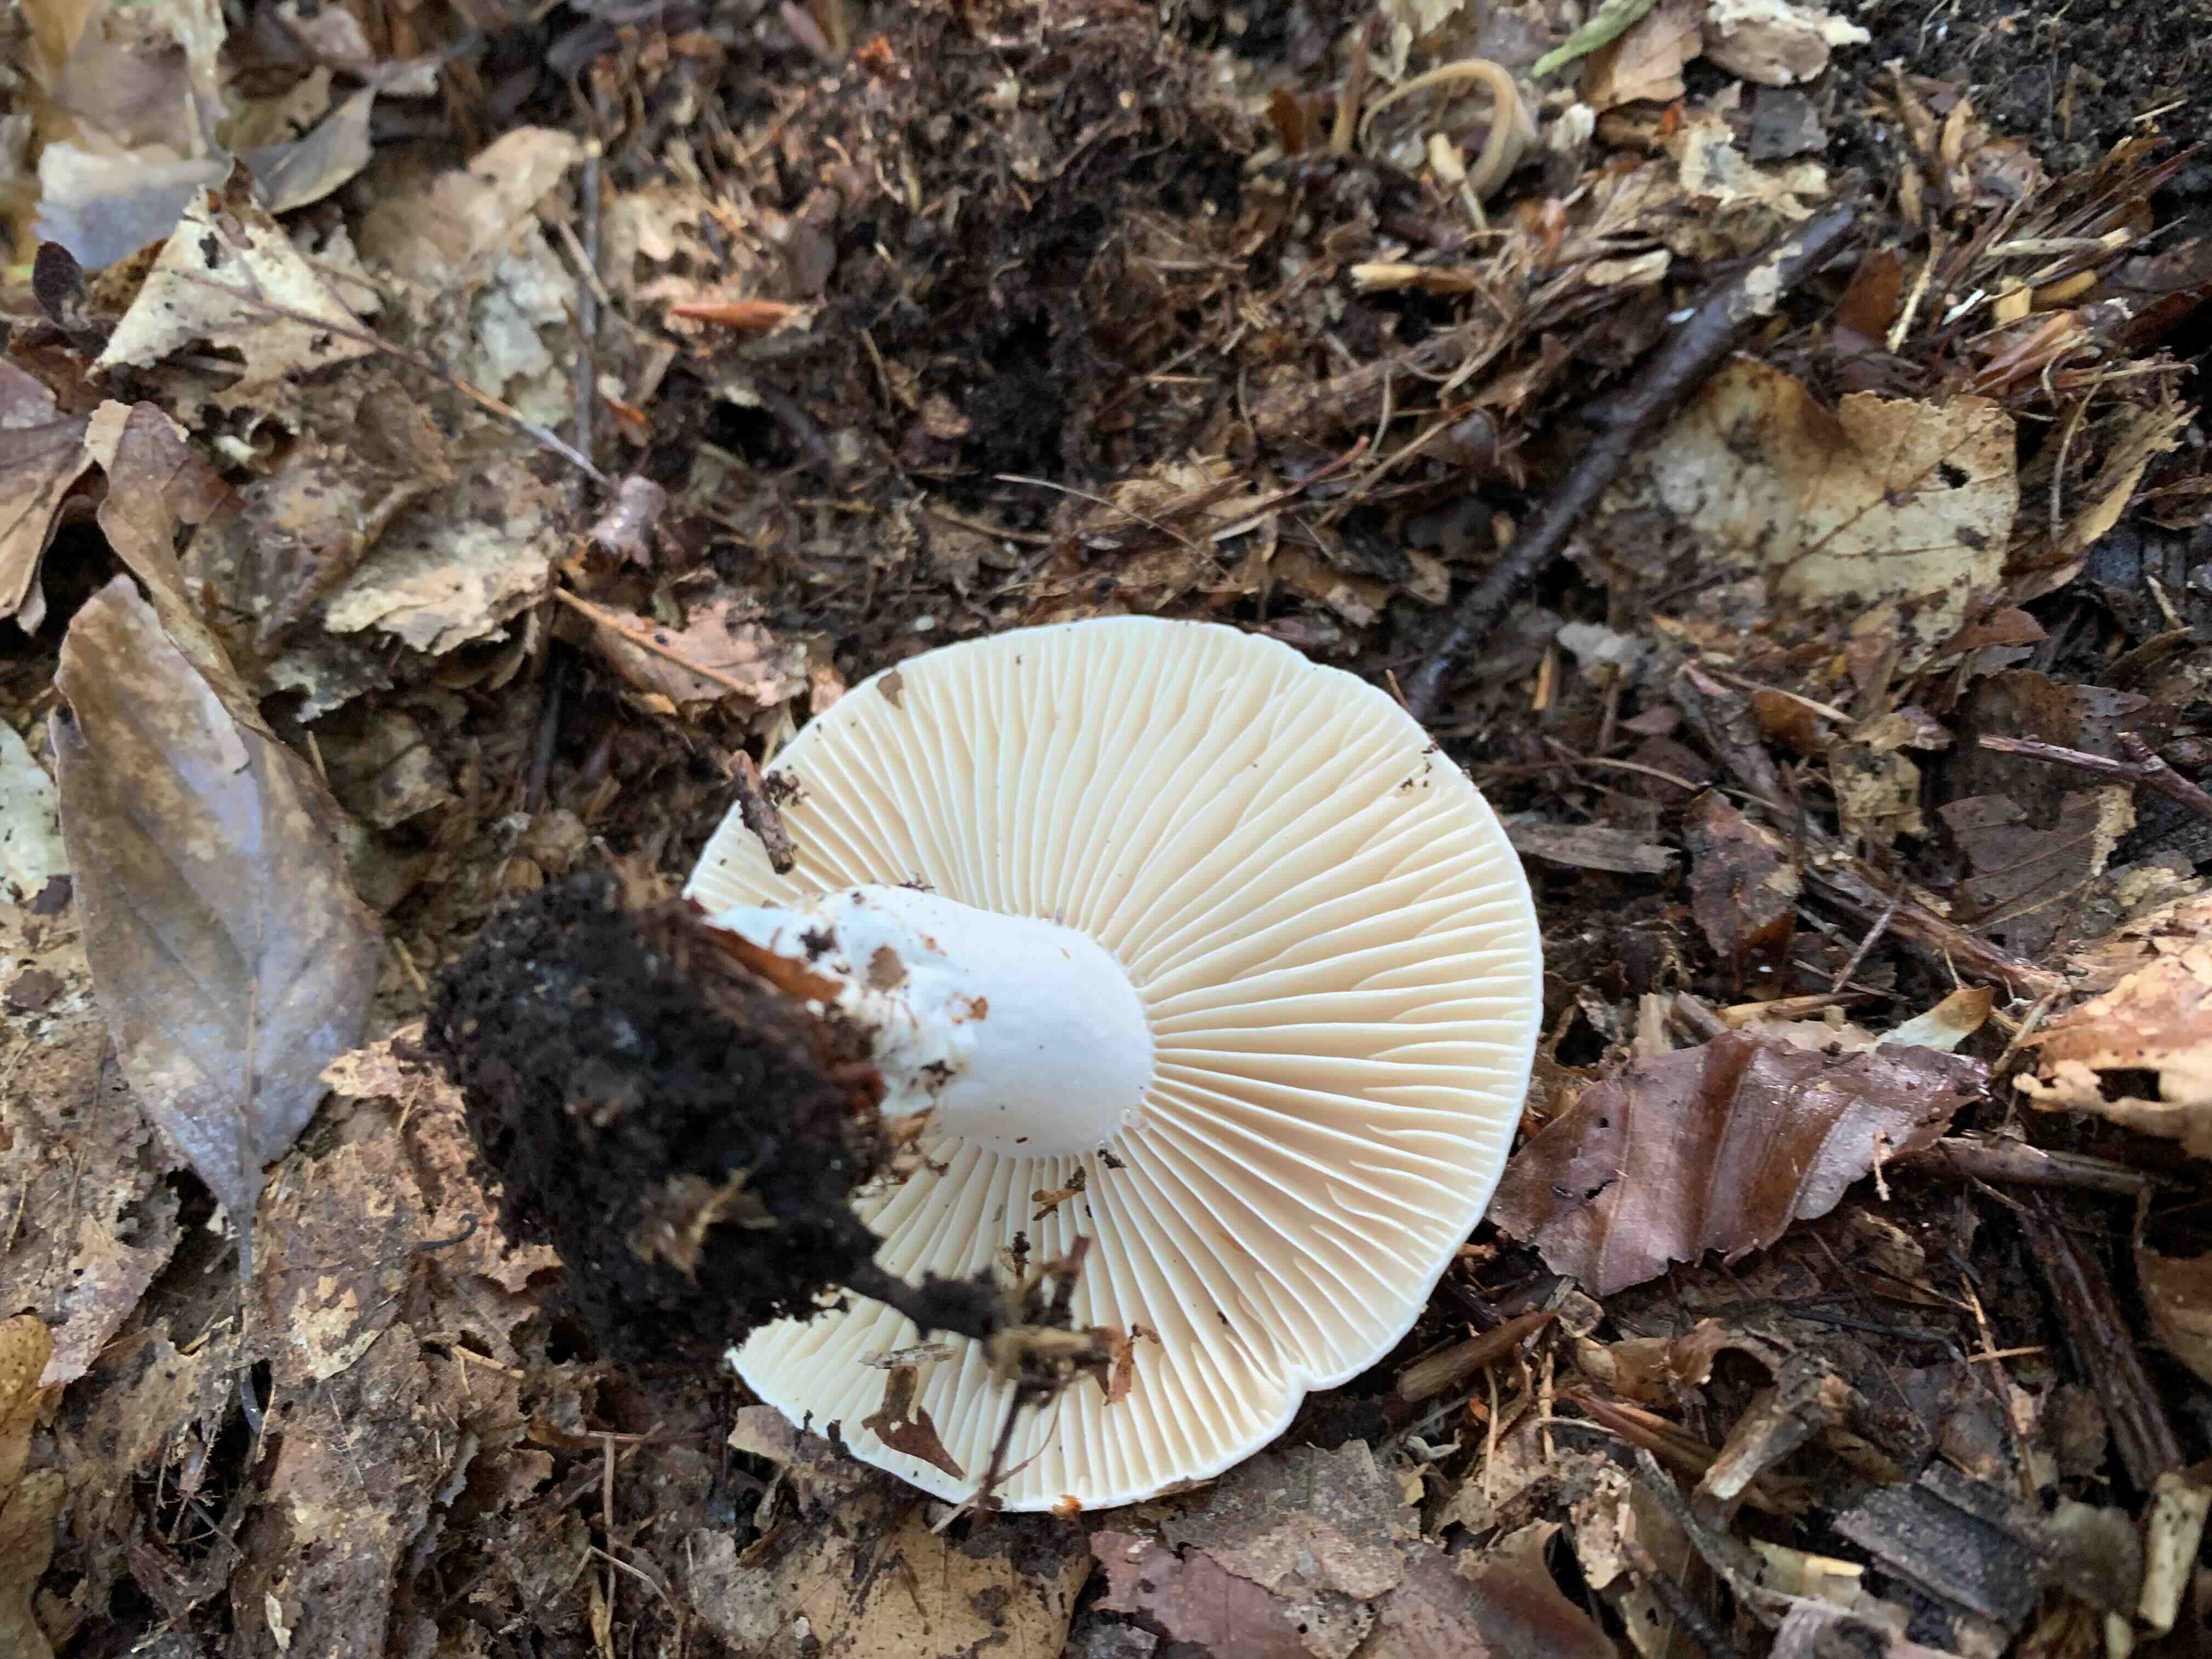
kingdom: Fungi
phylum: Basidiomycota
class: Agaricomycetes
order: Russulales
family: Russulaceae
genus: Russula
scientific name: Russula adusta
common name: sværtende skørhat
